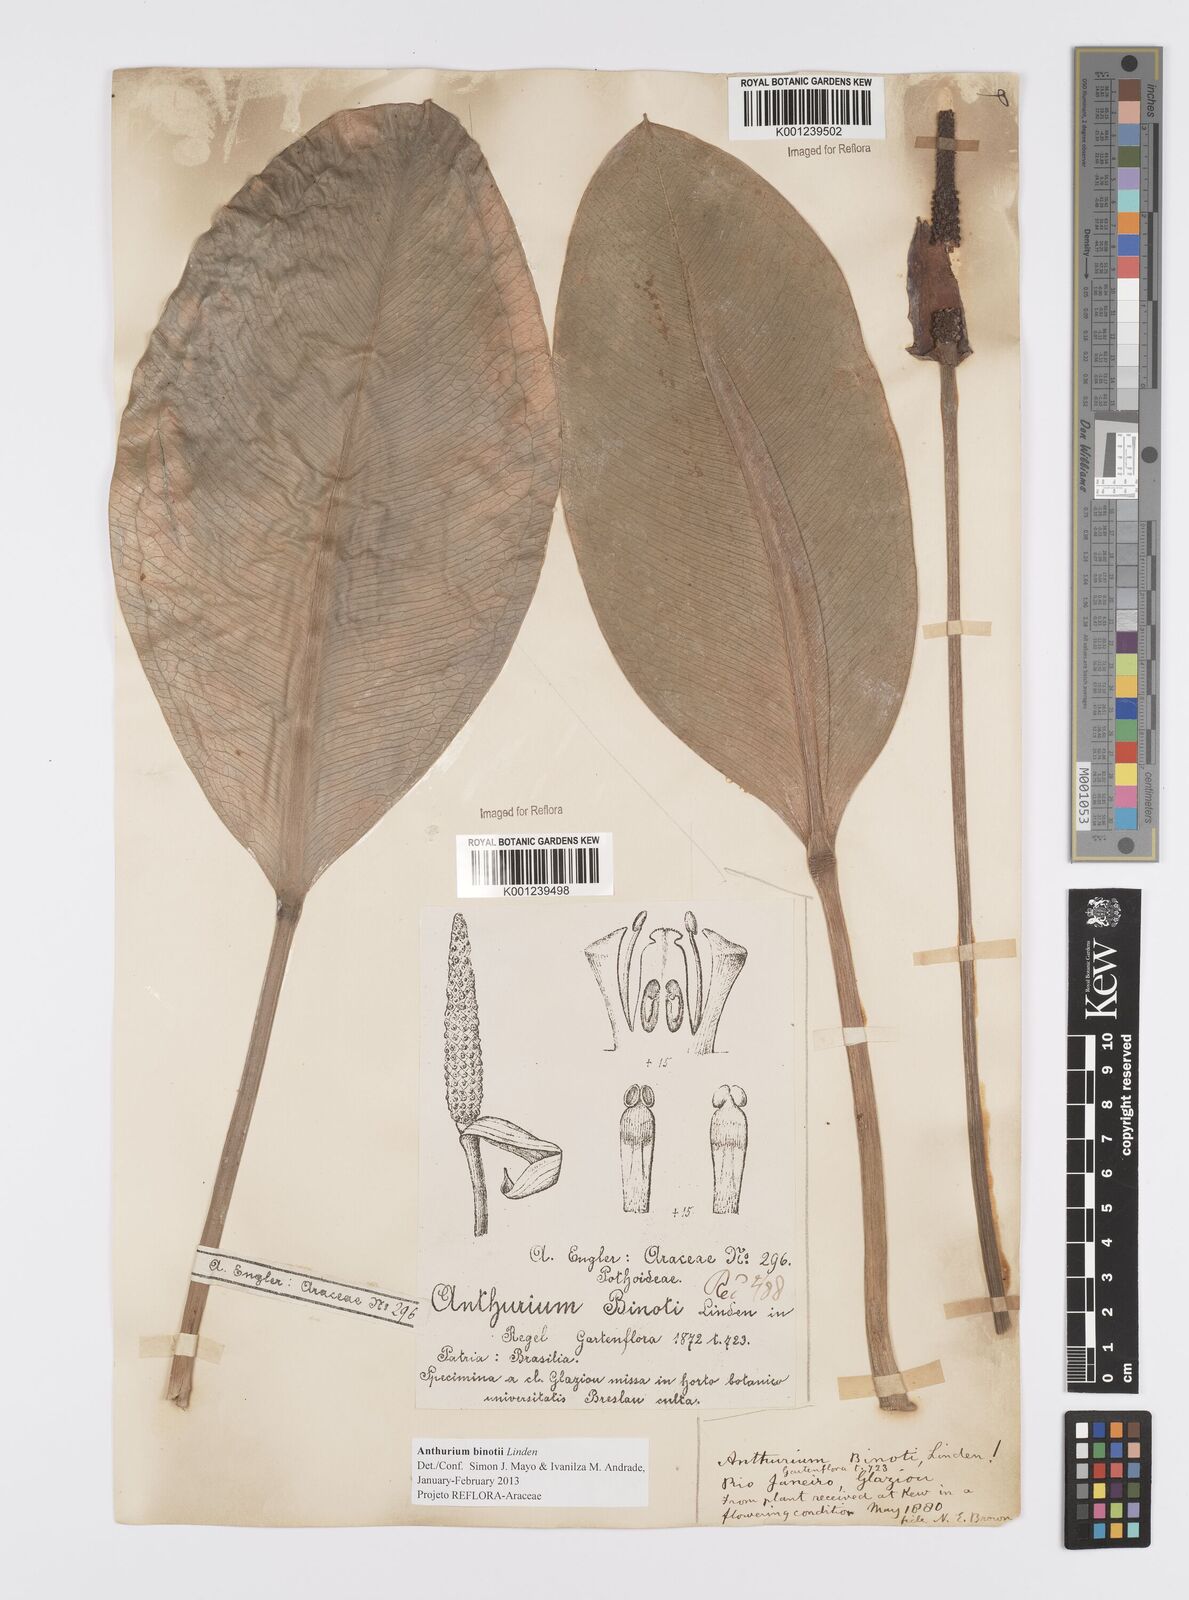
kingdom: Plantae
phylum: Tracheophyta
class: Liliopsida
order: Alismatales
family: Araceae
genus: Anthurium
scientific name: Anthurium binotii
